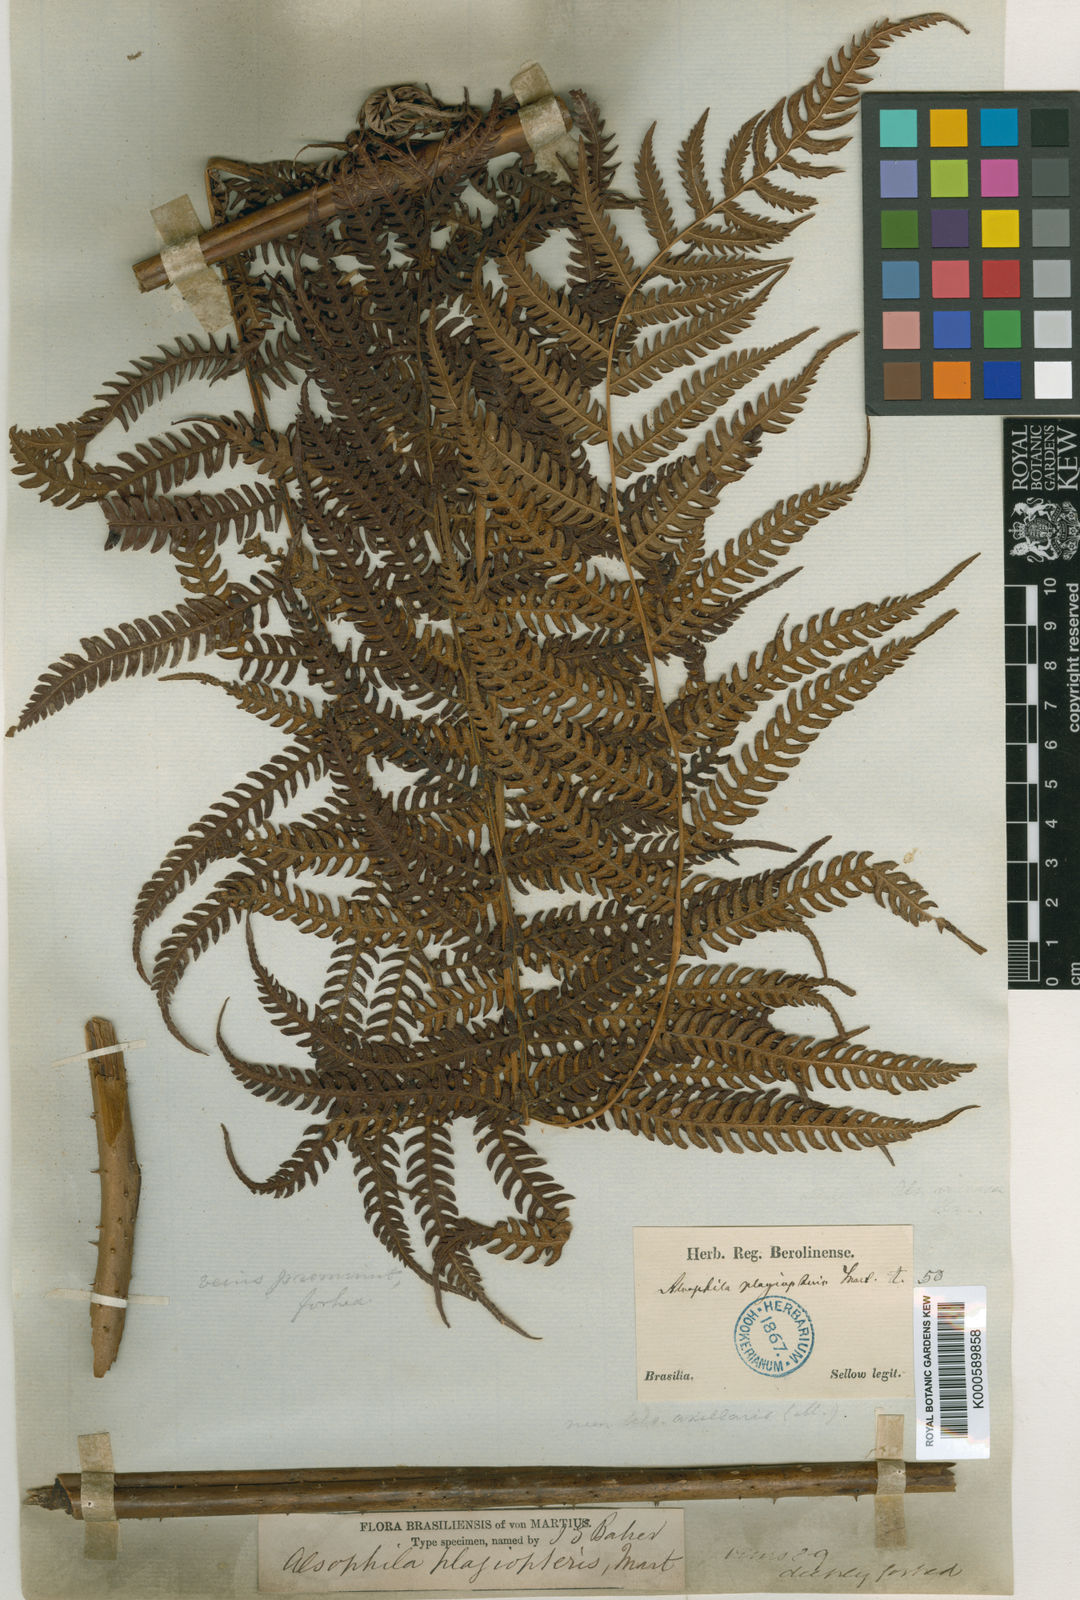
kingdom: Plantae
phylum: Tracheophyta
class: Polypodiopsida
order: Cyatheales
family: Cyatheaceae
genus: Alsophila
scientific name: Alsophila engelii
